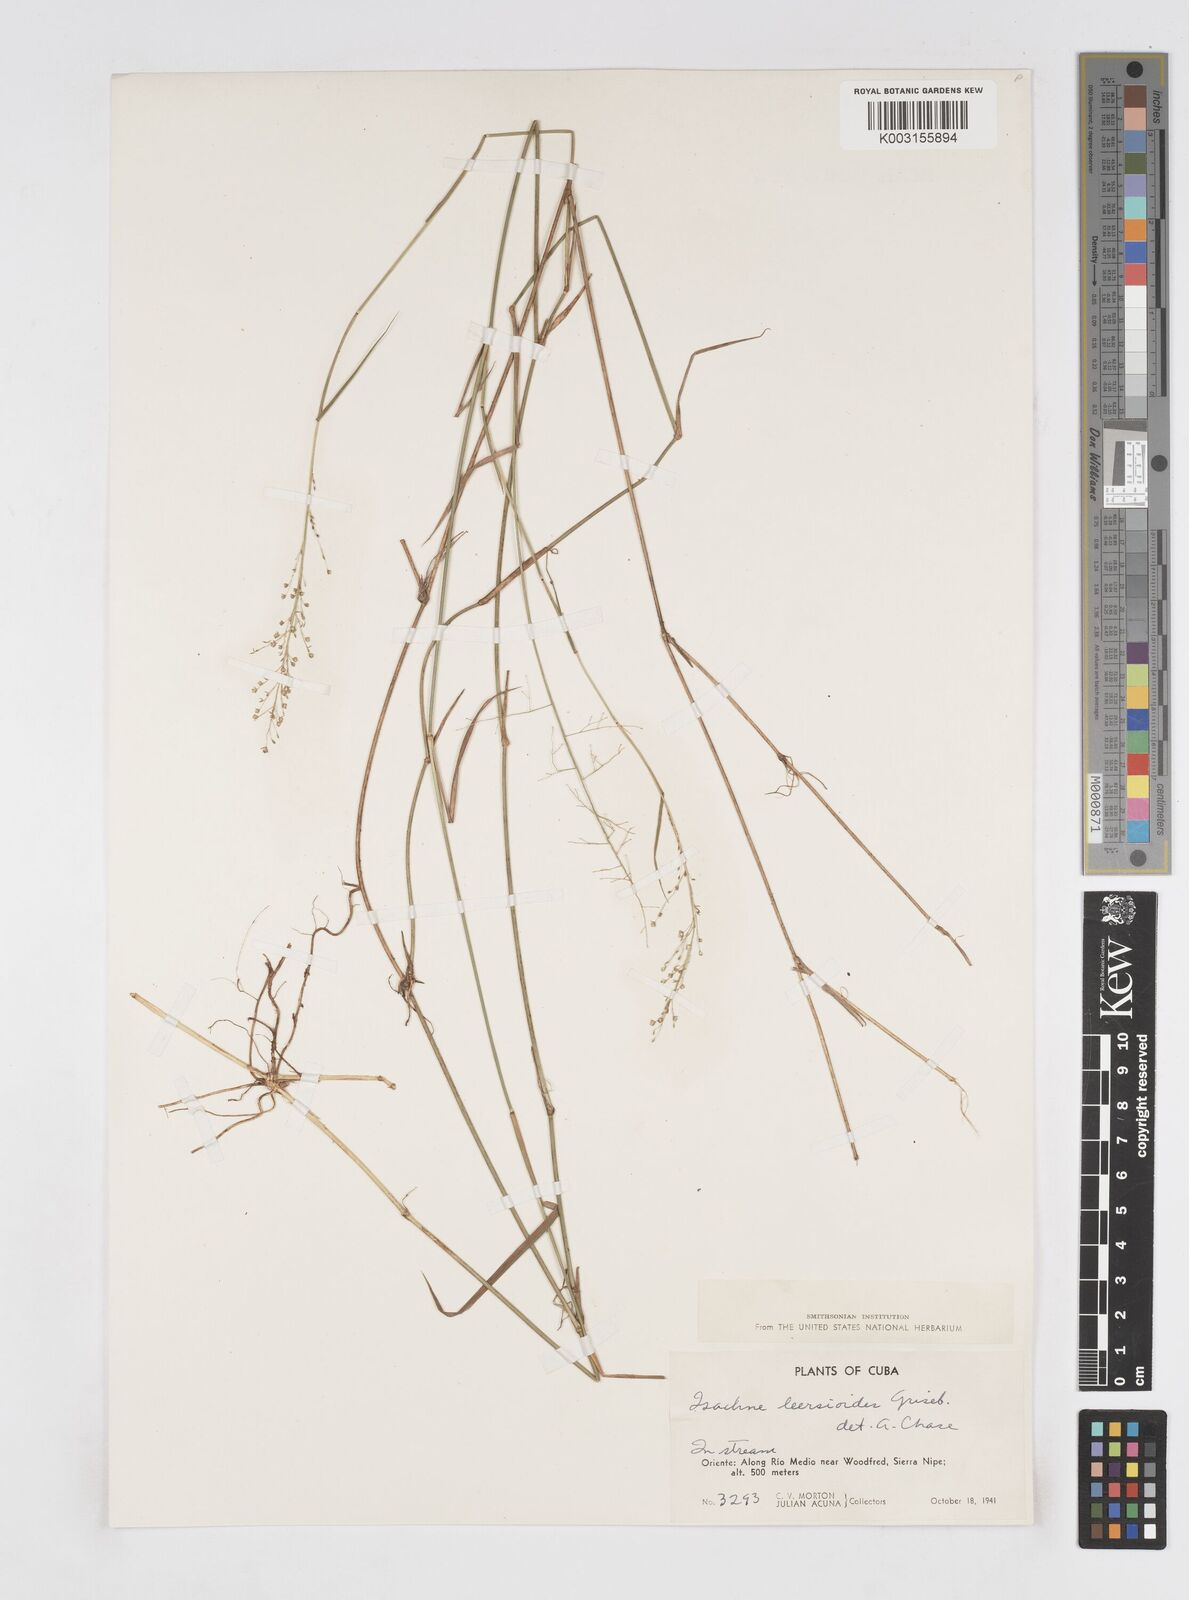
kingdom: Plantae
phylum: Tracheophyta
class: Liliopsida
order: Poales
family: Poaceae
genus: Isachne
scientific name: Isachne leersioides
